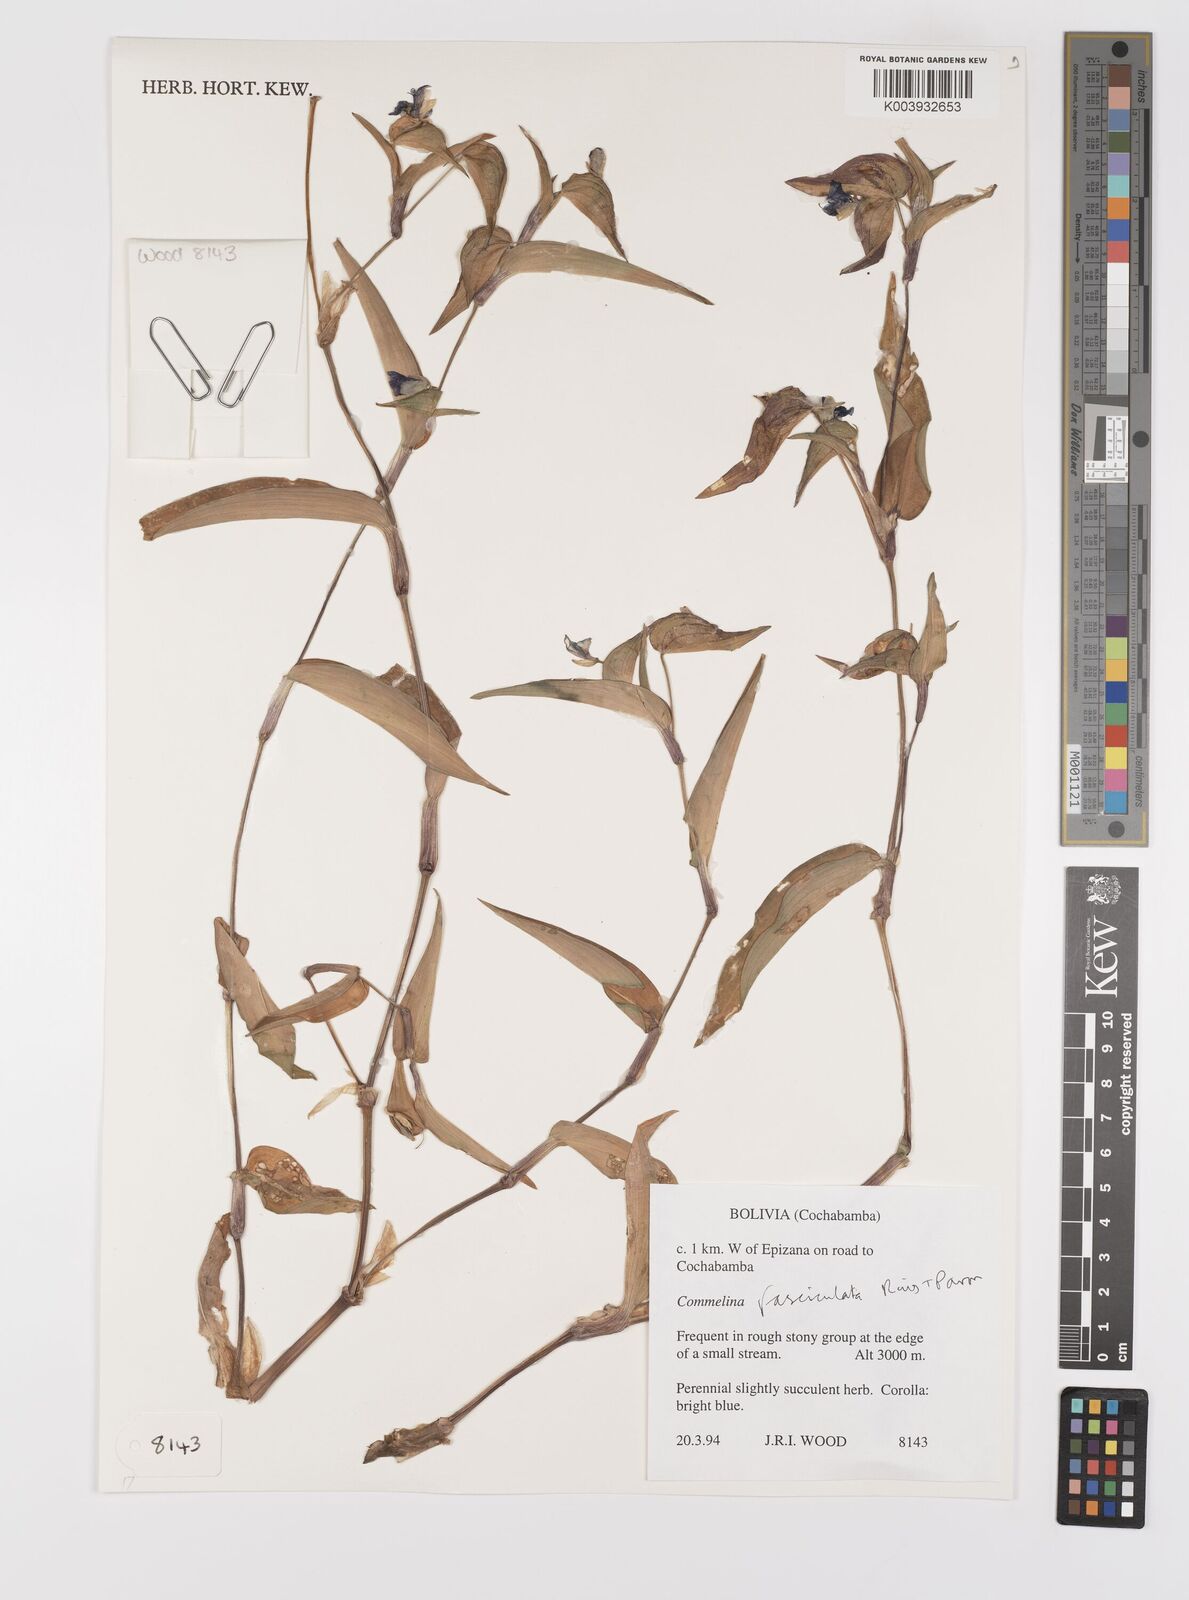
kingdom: Plantae
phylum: Tracheophyta
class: Liliopsida
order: Commelinales
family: Commelinaceae
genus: Commelina
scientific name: Commelina tuberosa
